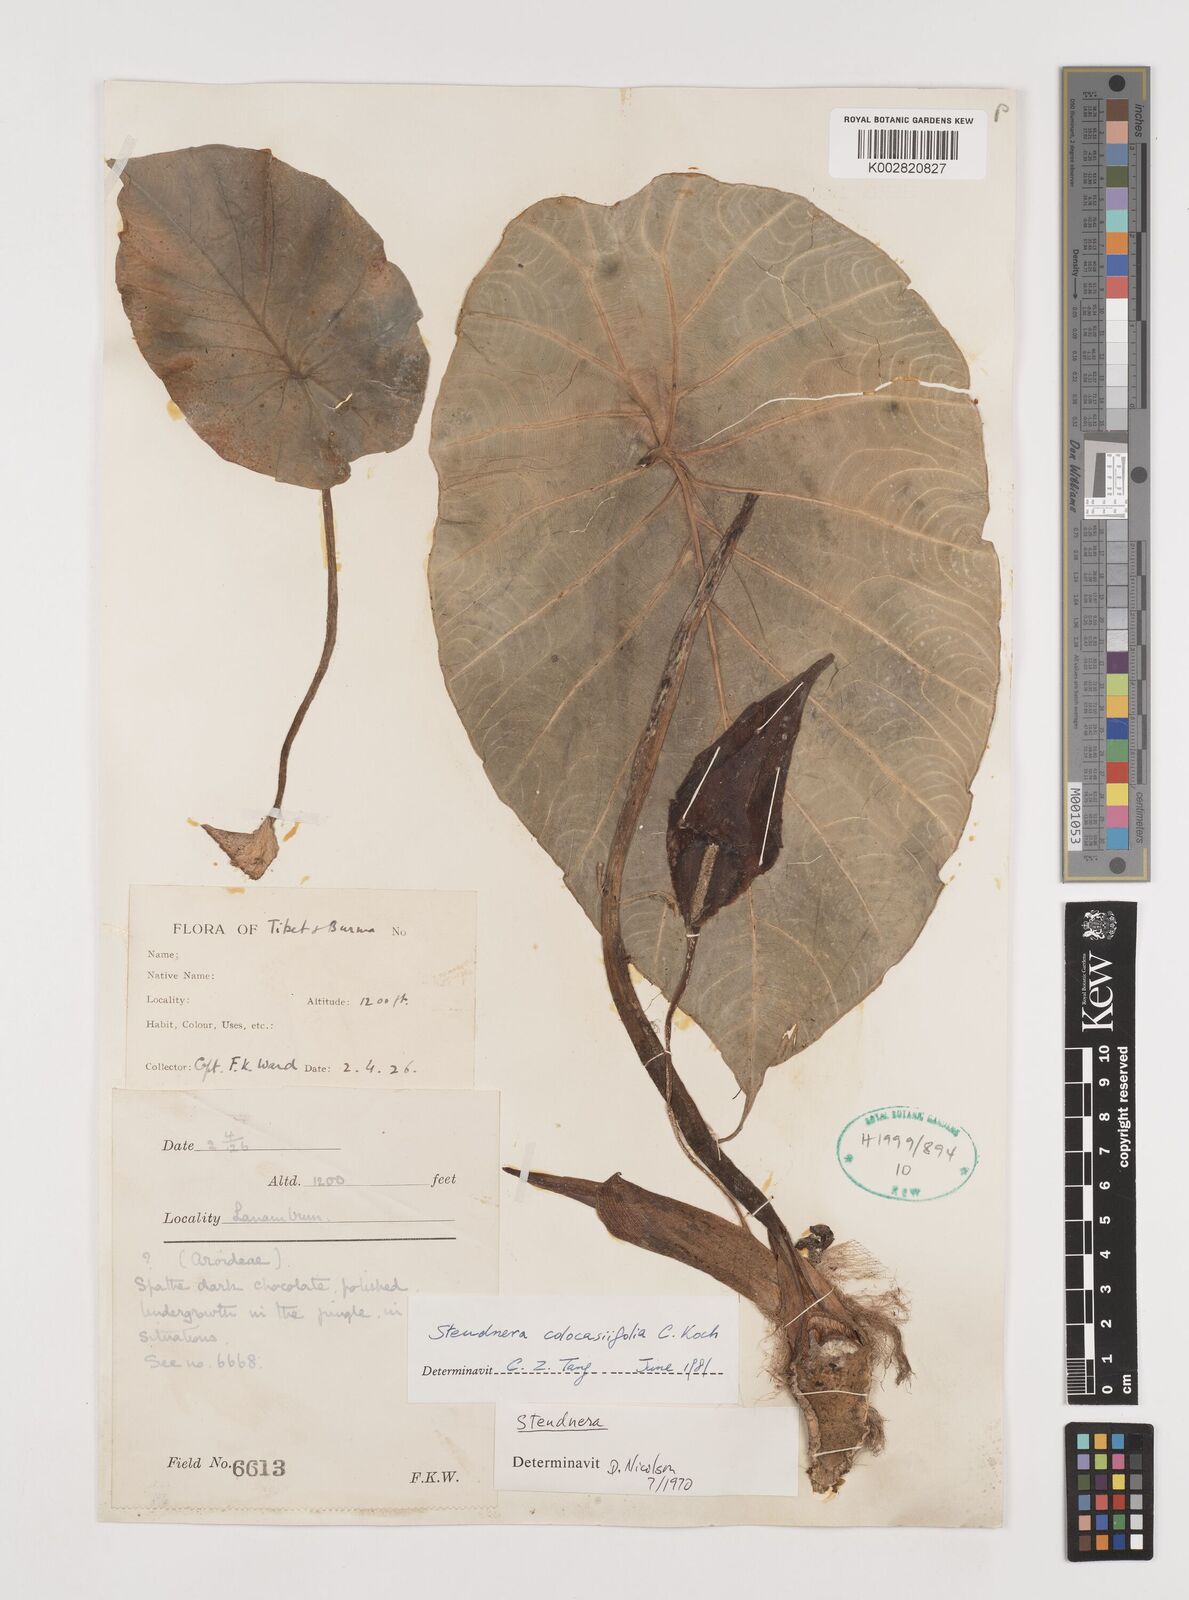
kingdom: Plantae
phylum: Tracheophyta
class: Liliopsida
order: Alismatales
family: Araceae
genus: Steudnera
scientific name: Steudnera colocasiifolia
